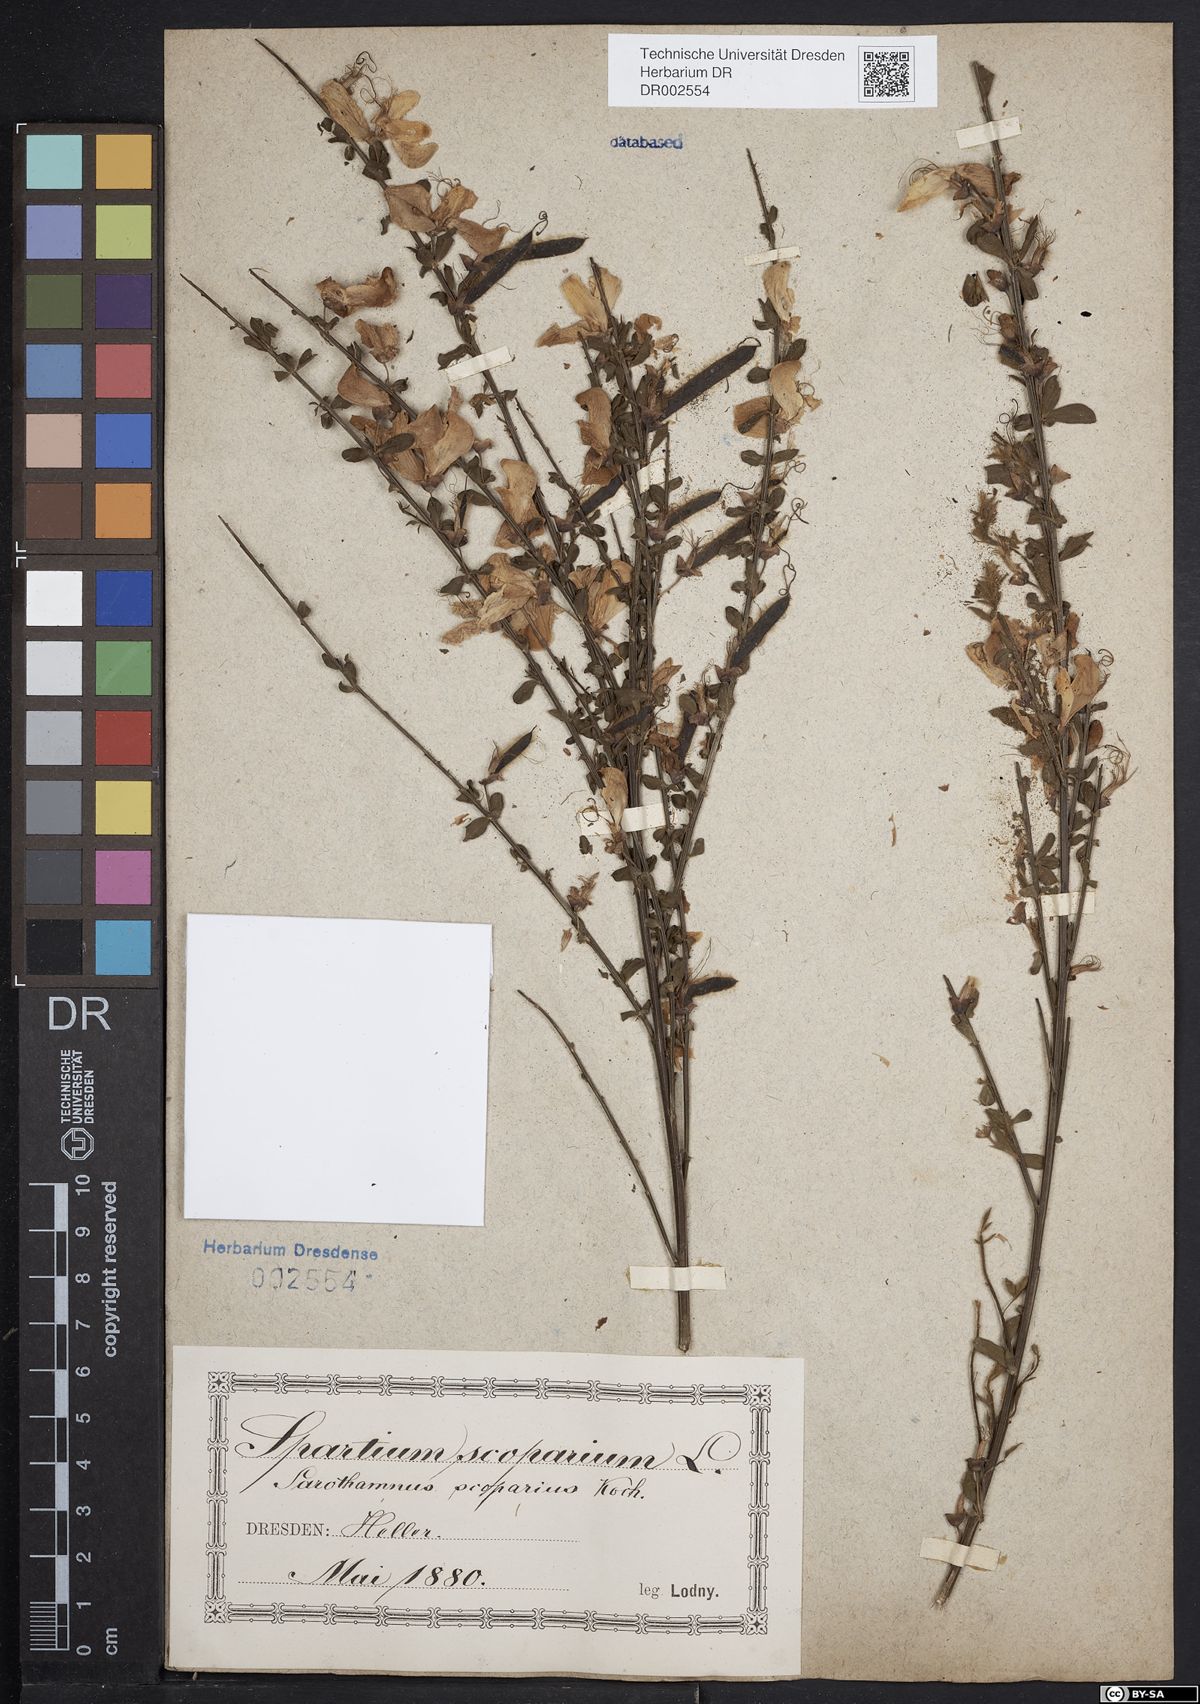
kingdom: Plantae
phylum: Tracheophyta
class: Magnoliopsida
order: Fabales
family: Fabaceae
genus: Cytisus
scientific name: Cytisus scoparius
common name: Scotch broom
